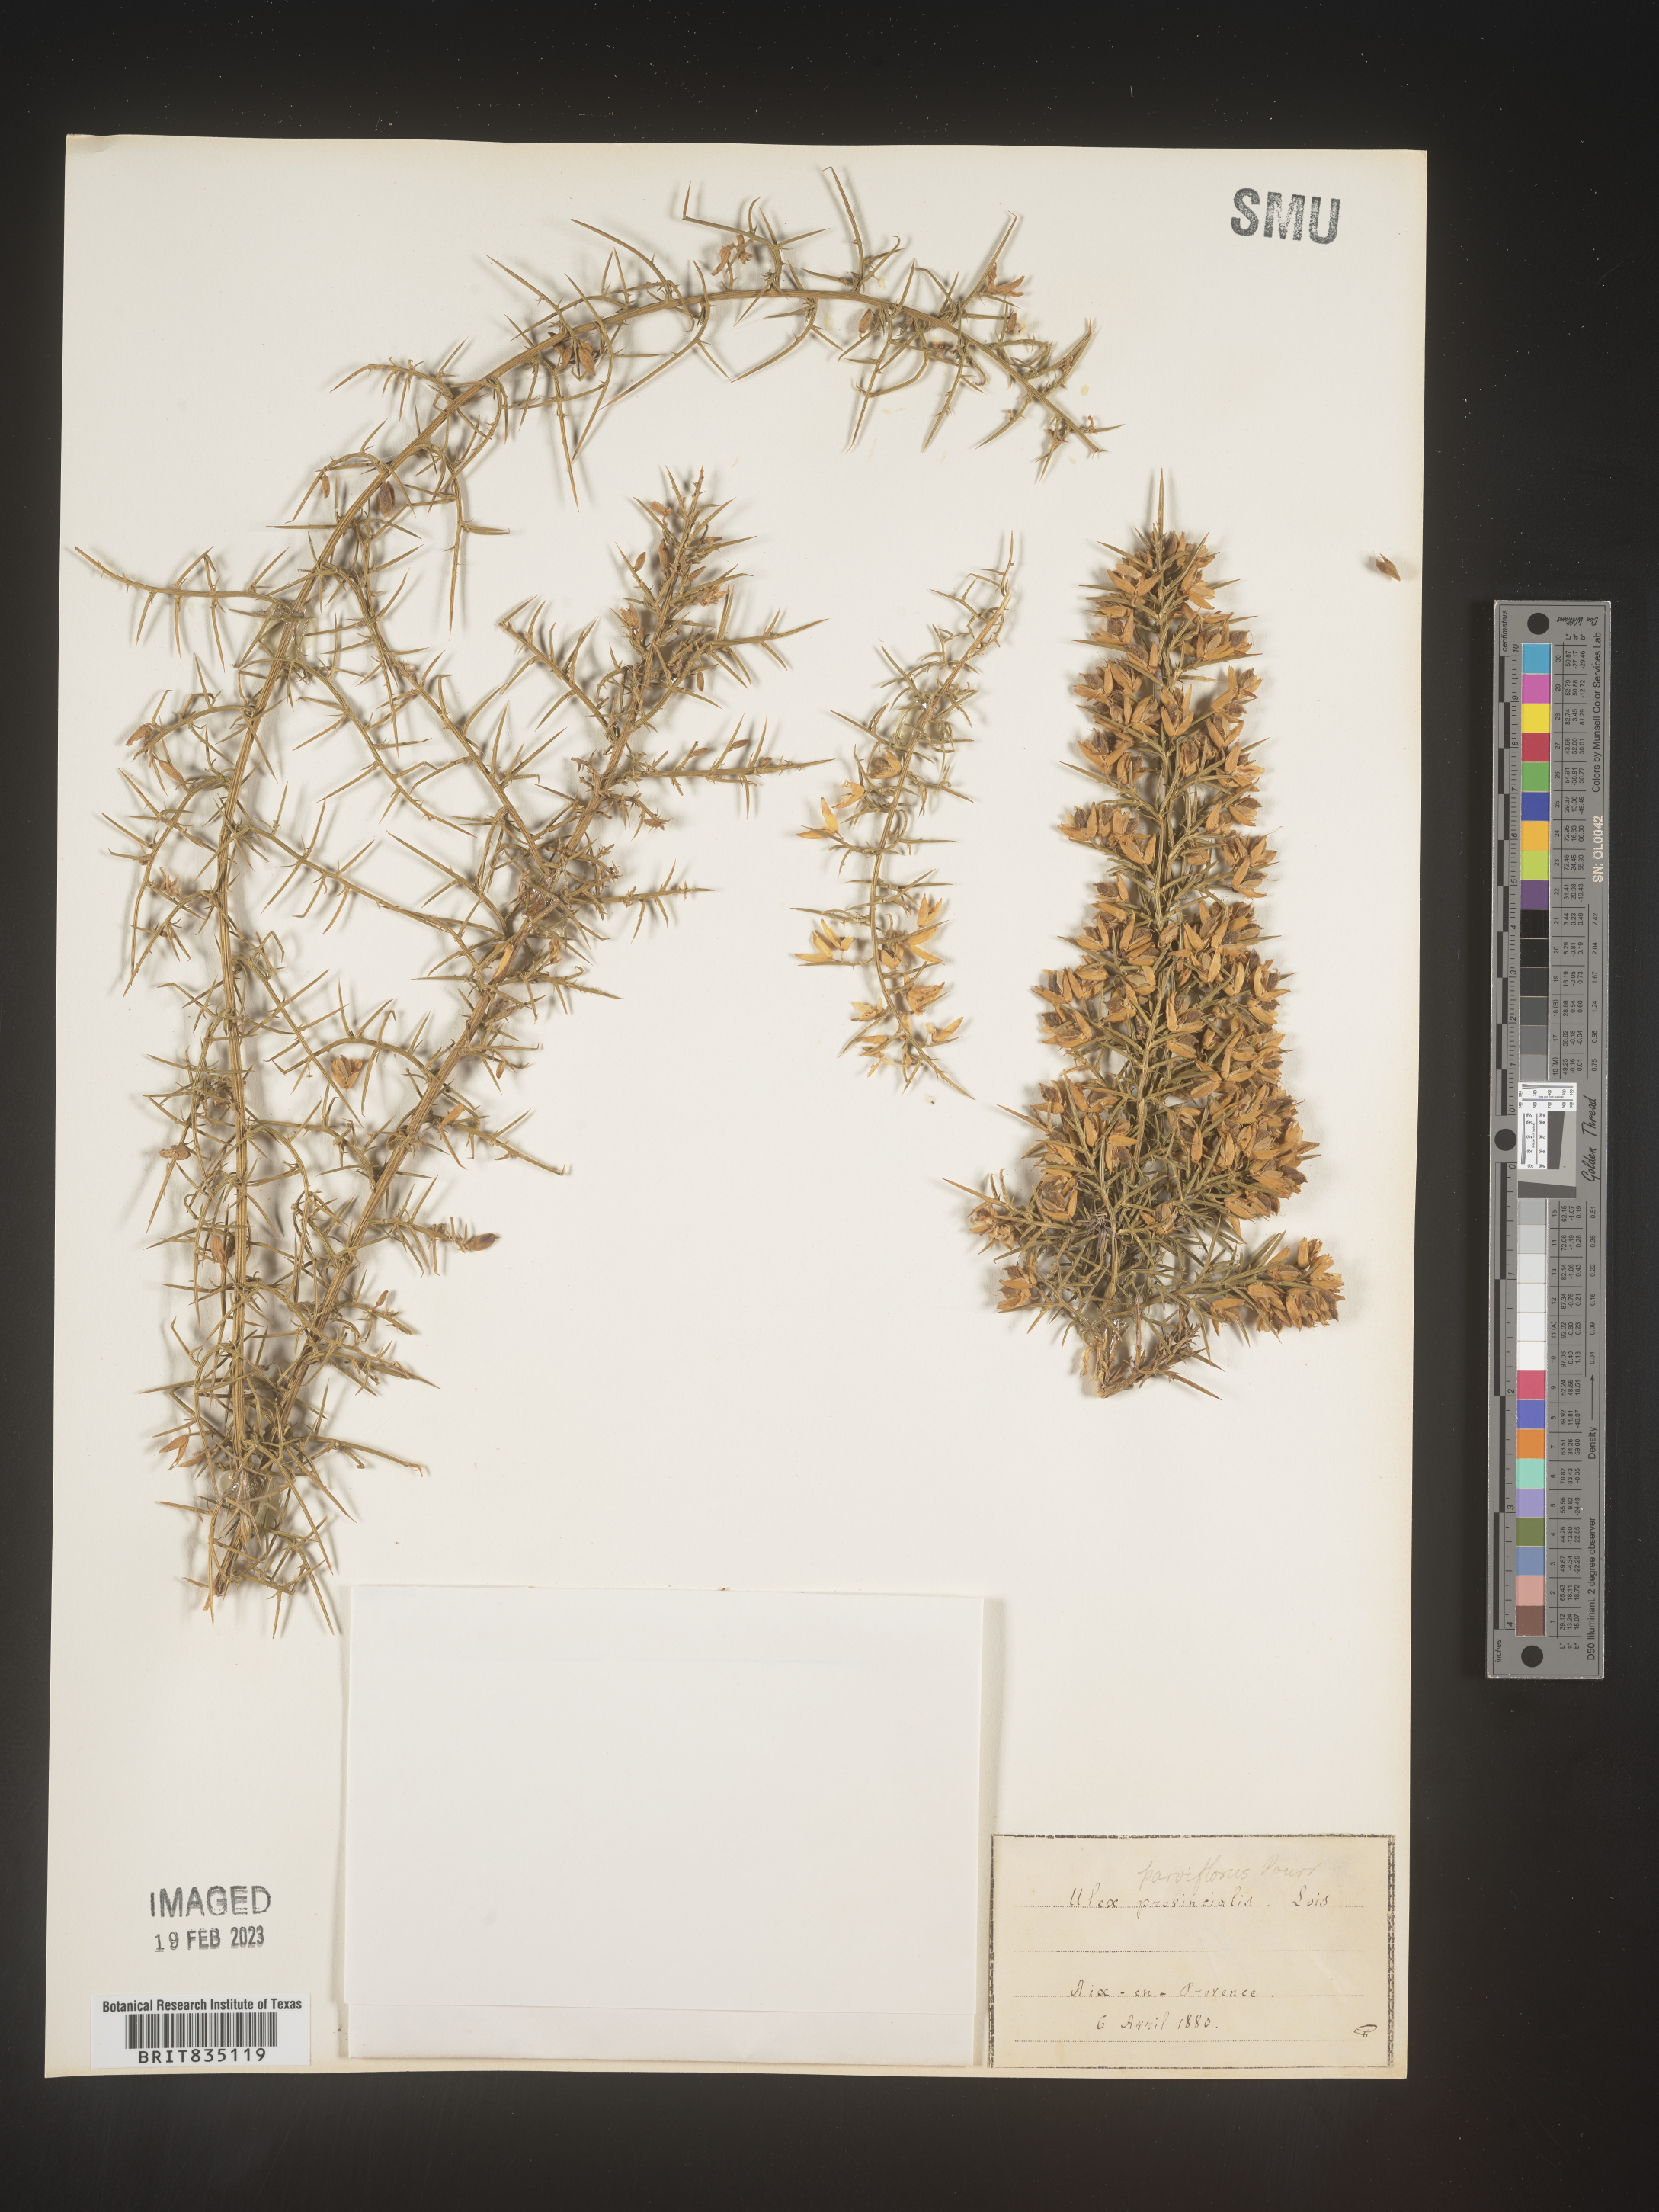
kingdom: Plantae
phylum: Tracheophyta
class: Magnoliopsida
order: Fabales
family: Fabaceae
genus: Ulex
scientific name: Ulex
